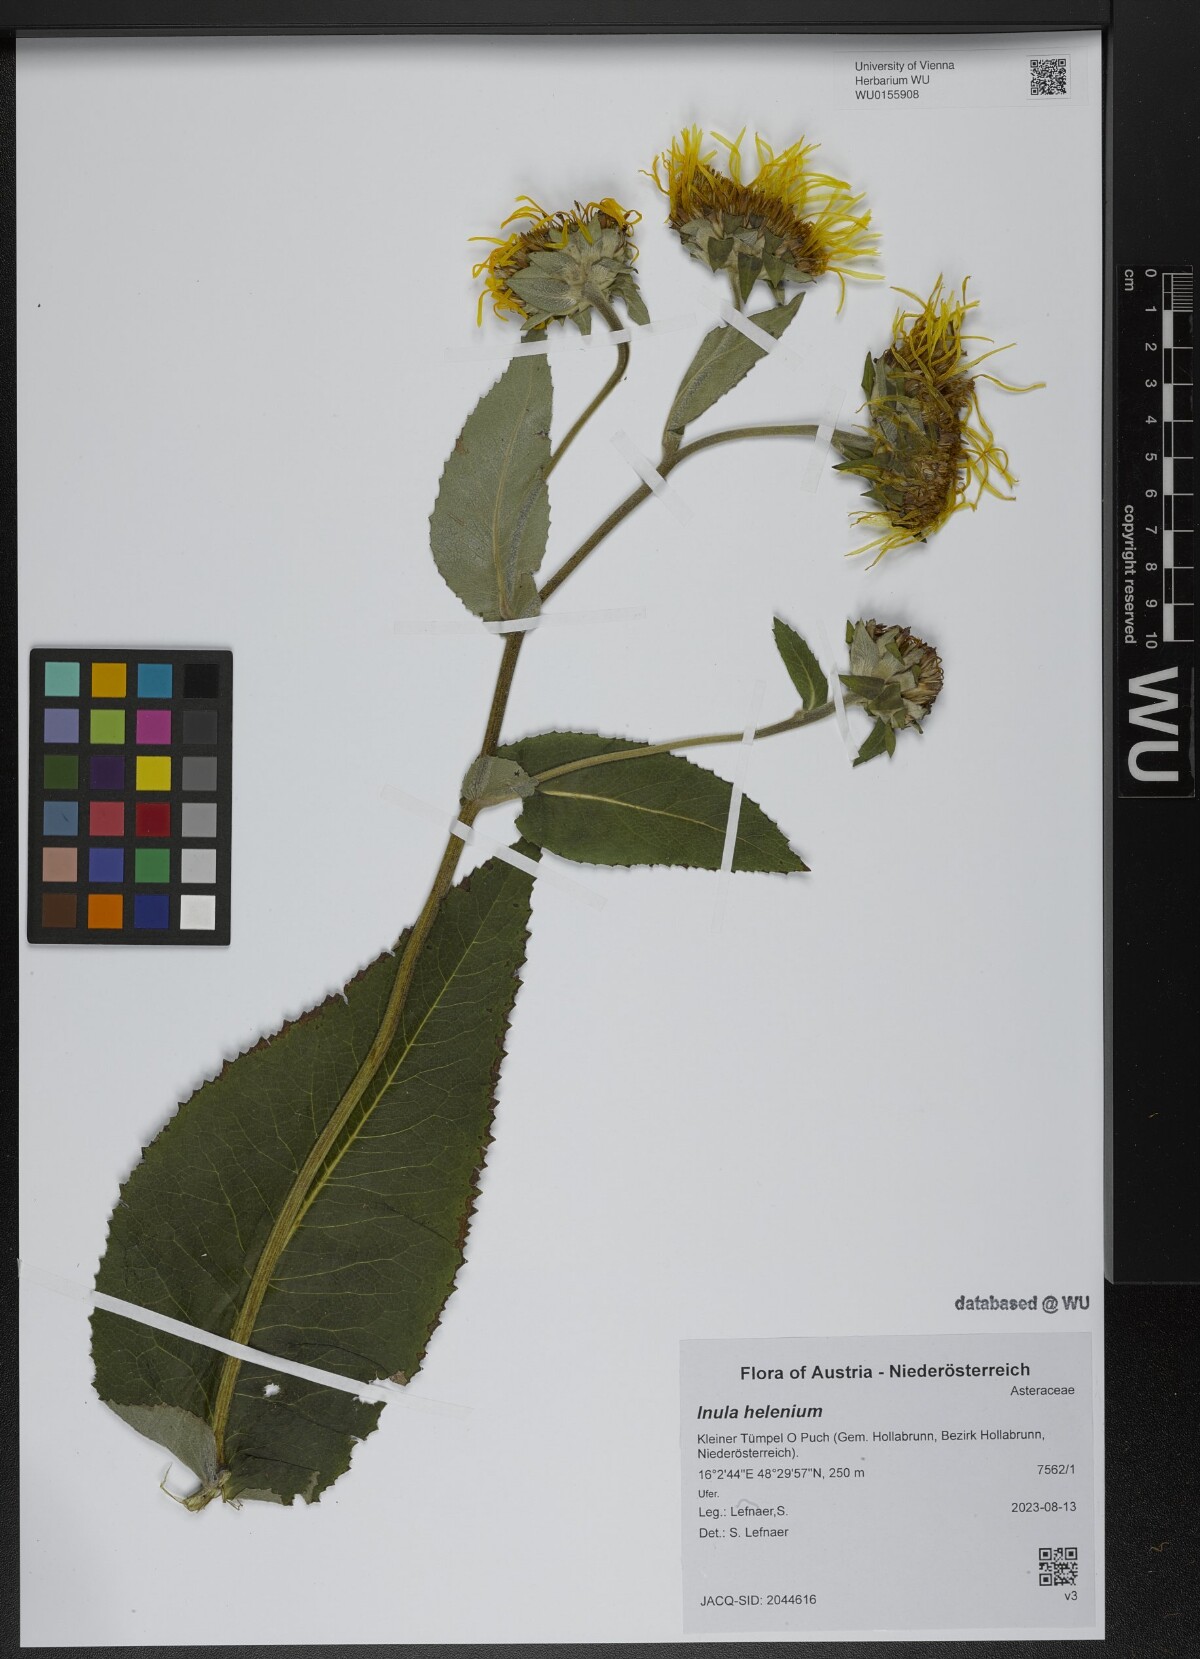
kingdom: Plantae
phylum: Tracheophyta
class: Magnoliopsida
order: Asterales
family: Asteraceae
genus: Inula
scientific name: Inula helenium
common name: Elecampane
